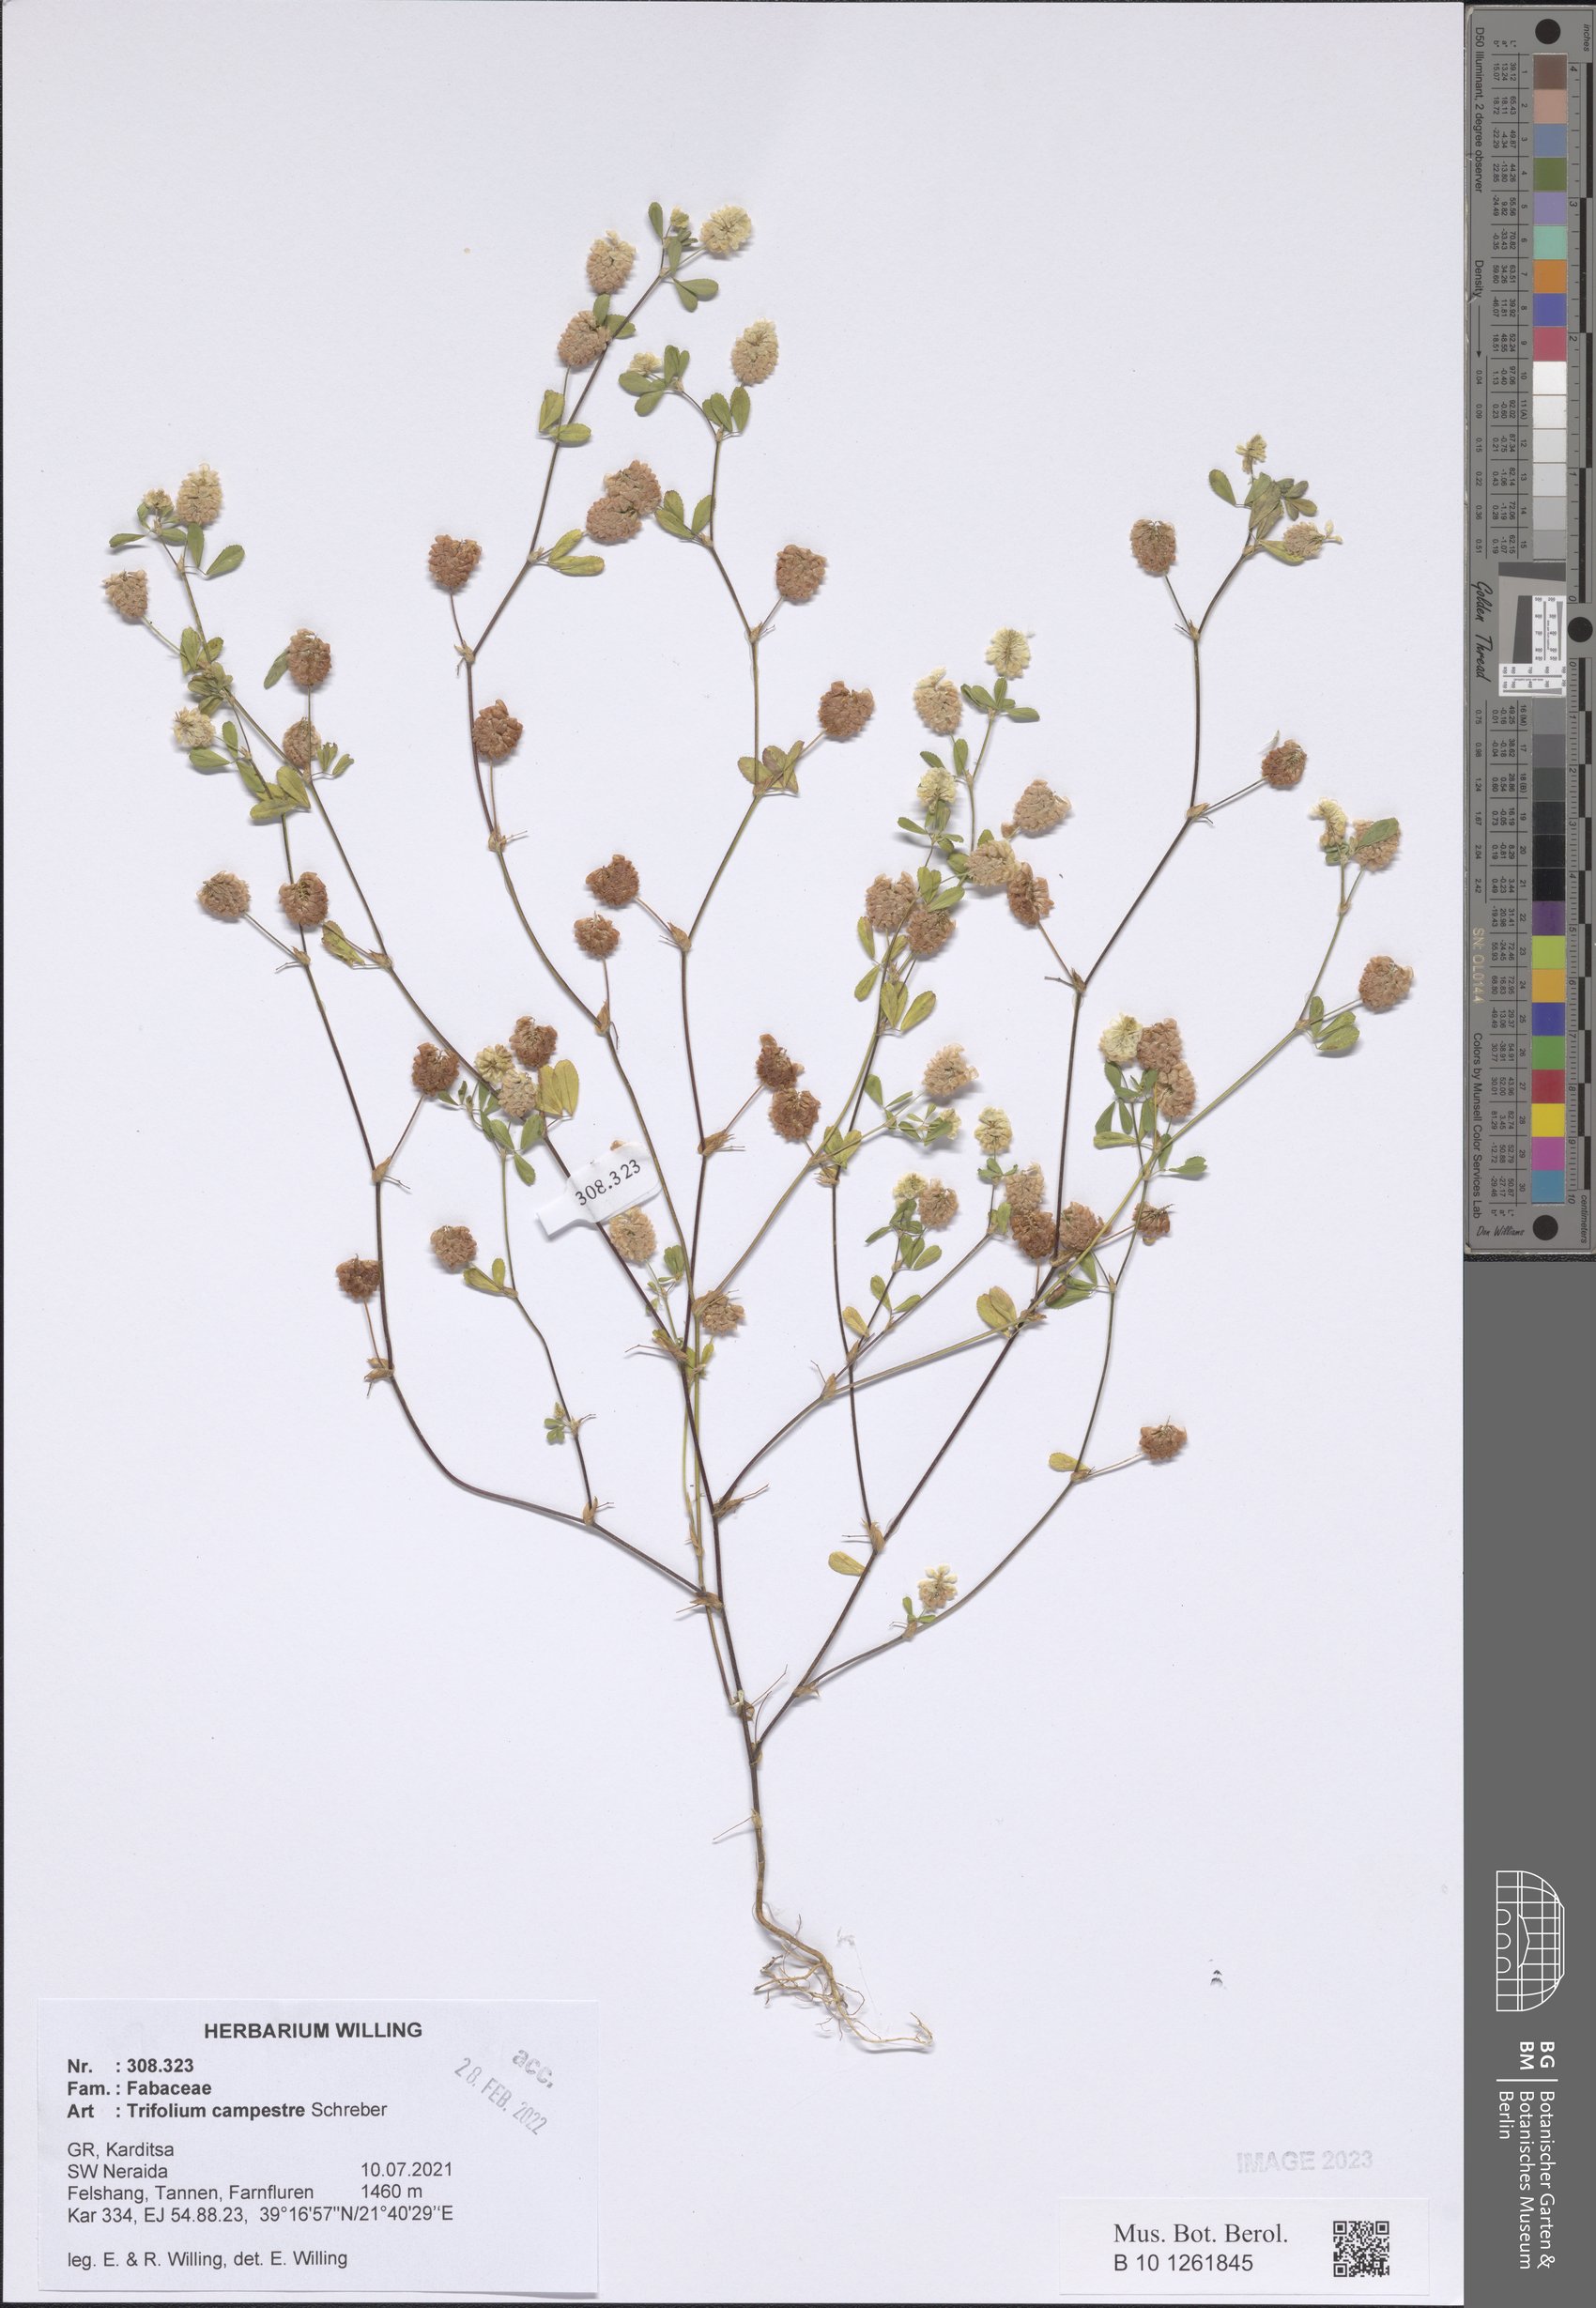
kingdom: Plantae
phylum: Tracheophyta
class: Magnoliopsida
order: Fabales
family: Fabaceae
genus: Trifolium
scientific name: Trifolium campestre
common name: Field clover
